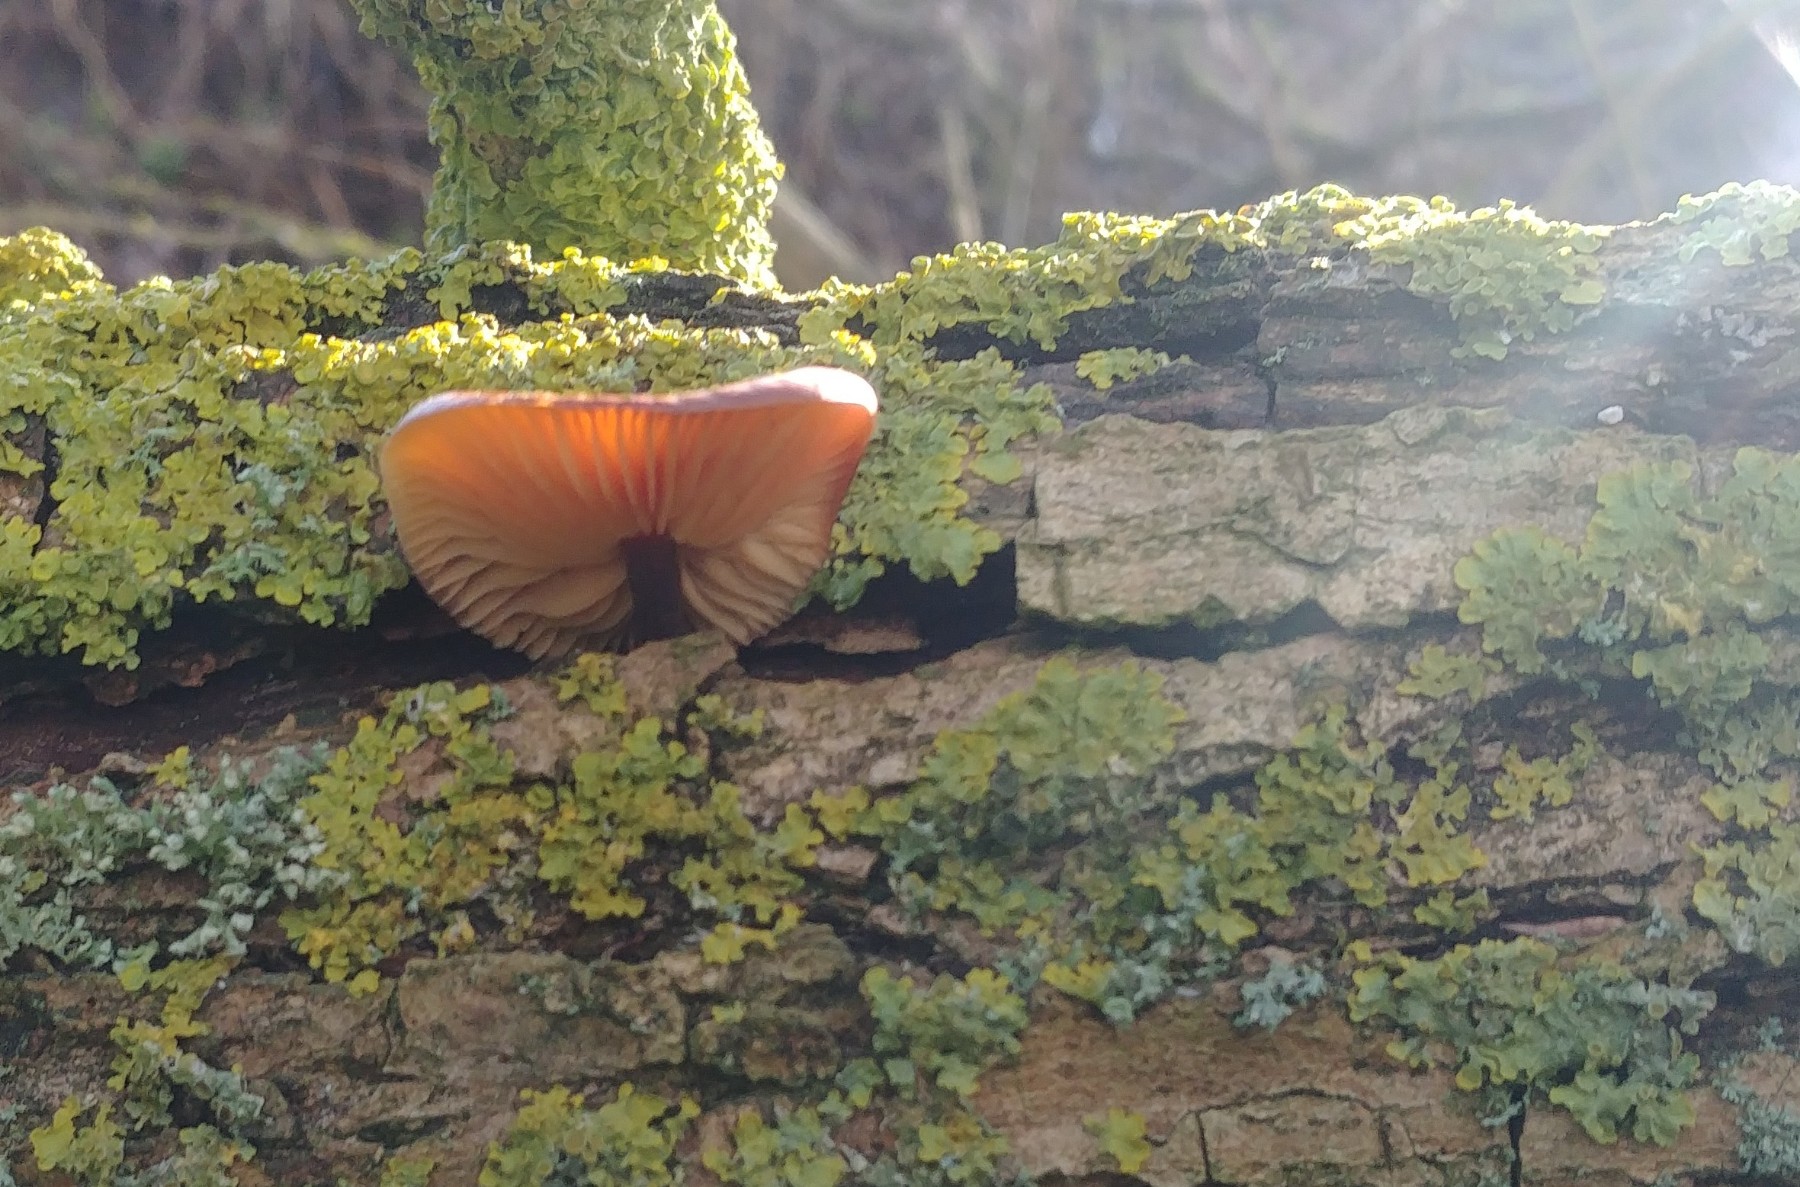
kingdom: Fungi
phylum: Basidiomycota
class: Agaricomycetes
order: Agaricales
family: Physalacriaceae
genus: Flammulina
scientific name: Flammulina
